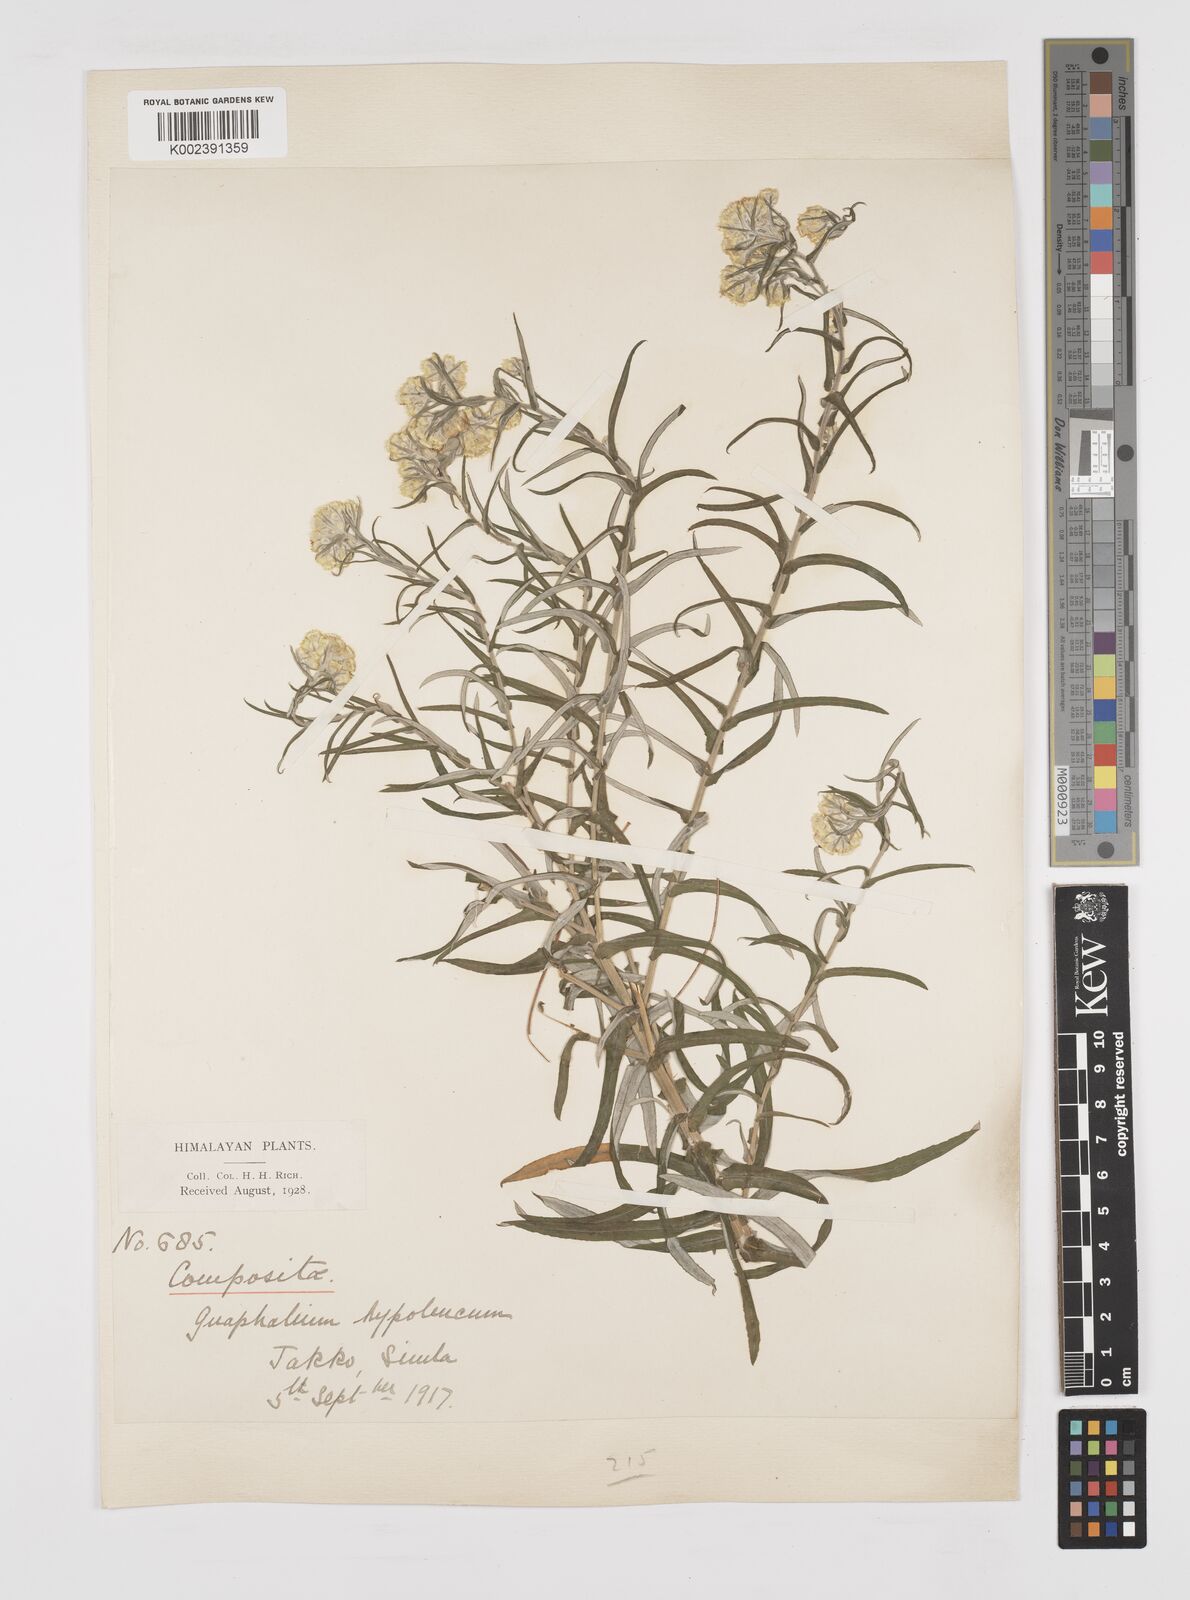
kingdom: Plantae
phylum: Tracheophyta
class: Magnoliopsida
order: Asterales
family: Asteraceae
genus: Pseudognaphalium
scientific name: Pseudognaphalium hypoleucum
